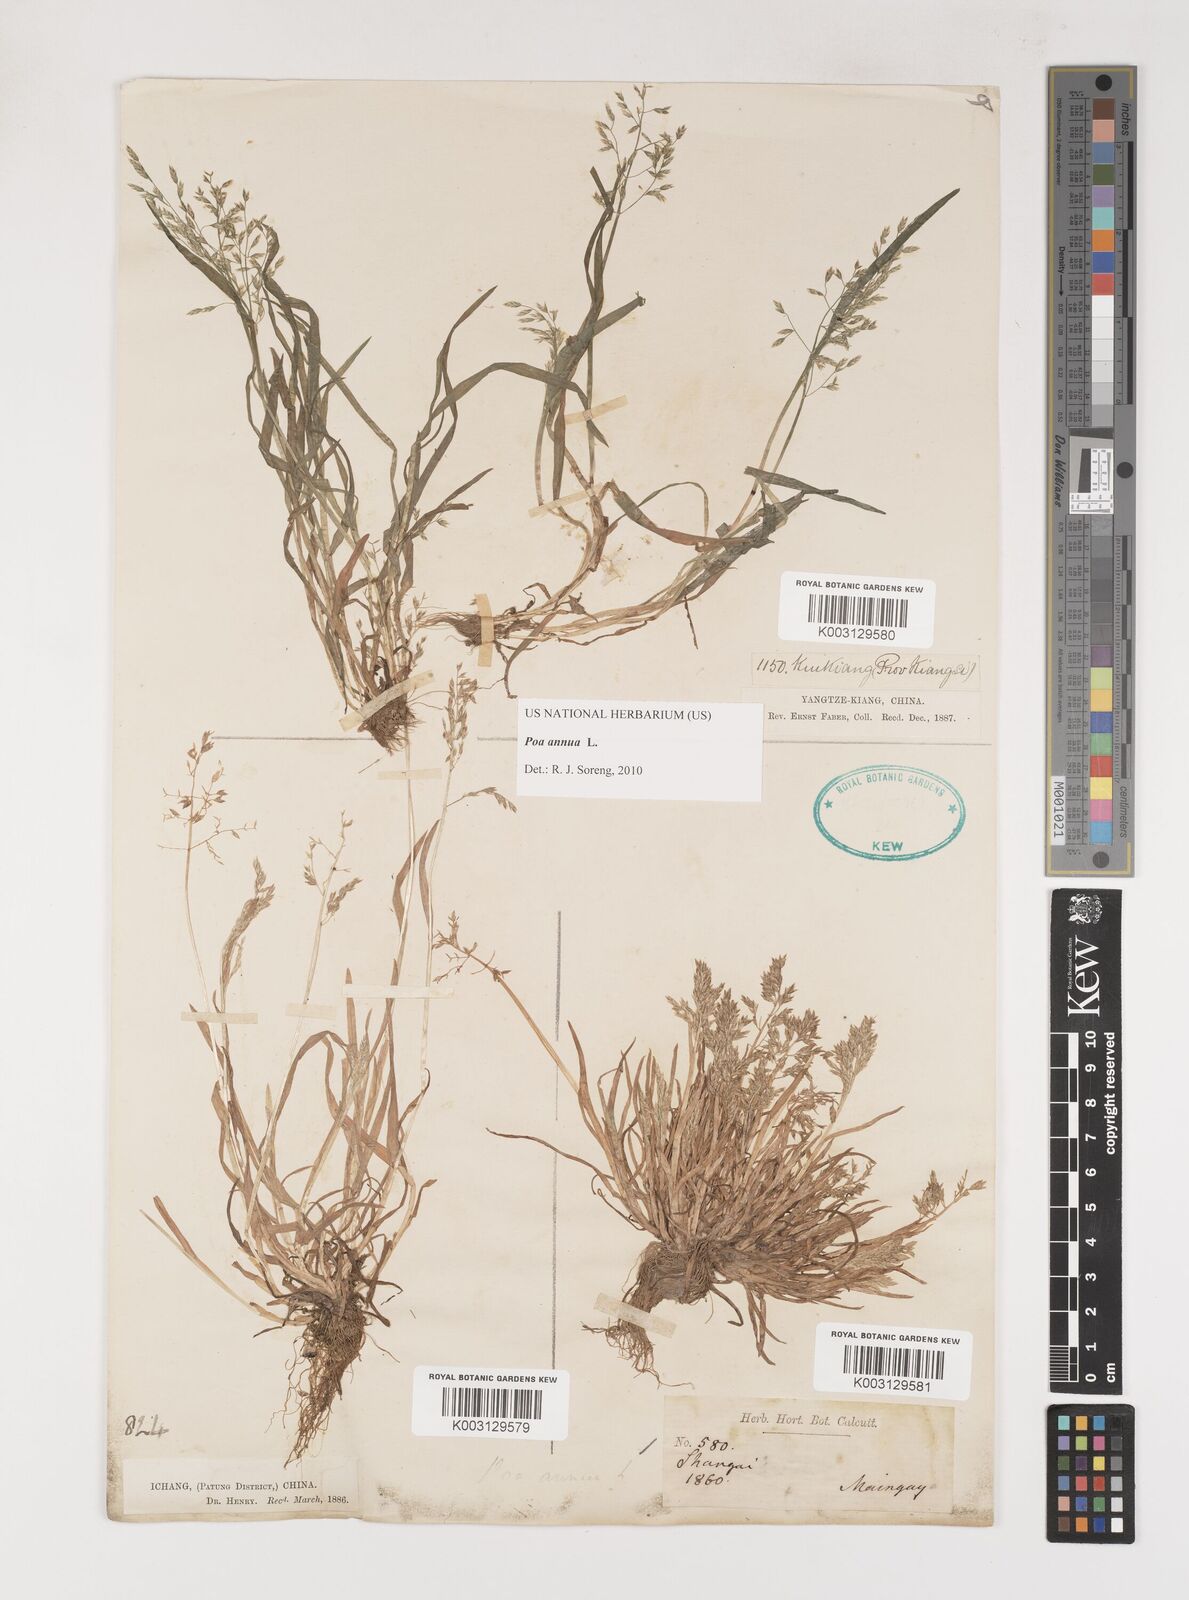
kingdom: Plantae
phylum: Tracheophyta
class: Liliopsida
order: Poales
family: Poaceae
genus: Poa
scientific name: Poa annua
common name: Annual bluegrass
